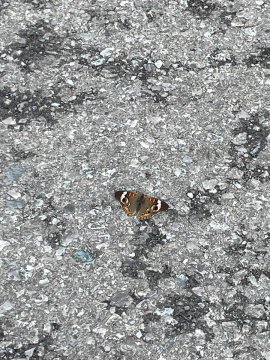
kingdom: Animalia
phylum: Arthropoda
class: Insecta
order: Lepidoptera
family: Nymphalidae
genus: Junonia
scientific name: Junonia coenia
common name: Common Buckeye
